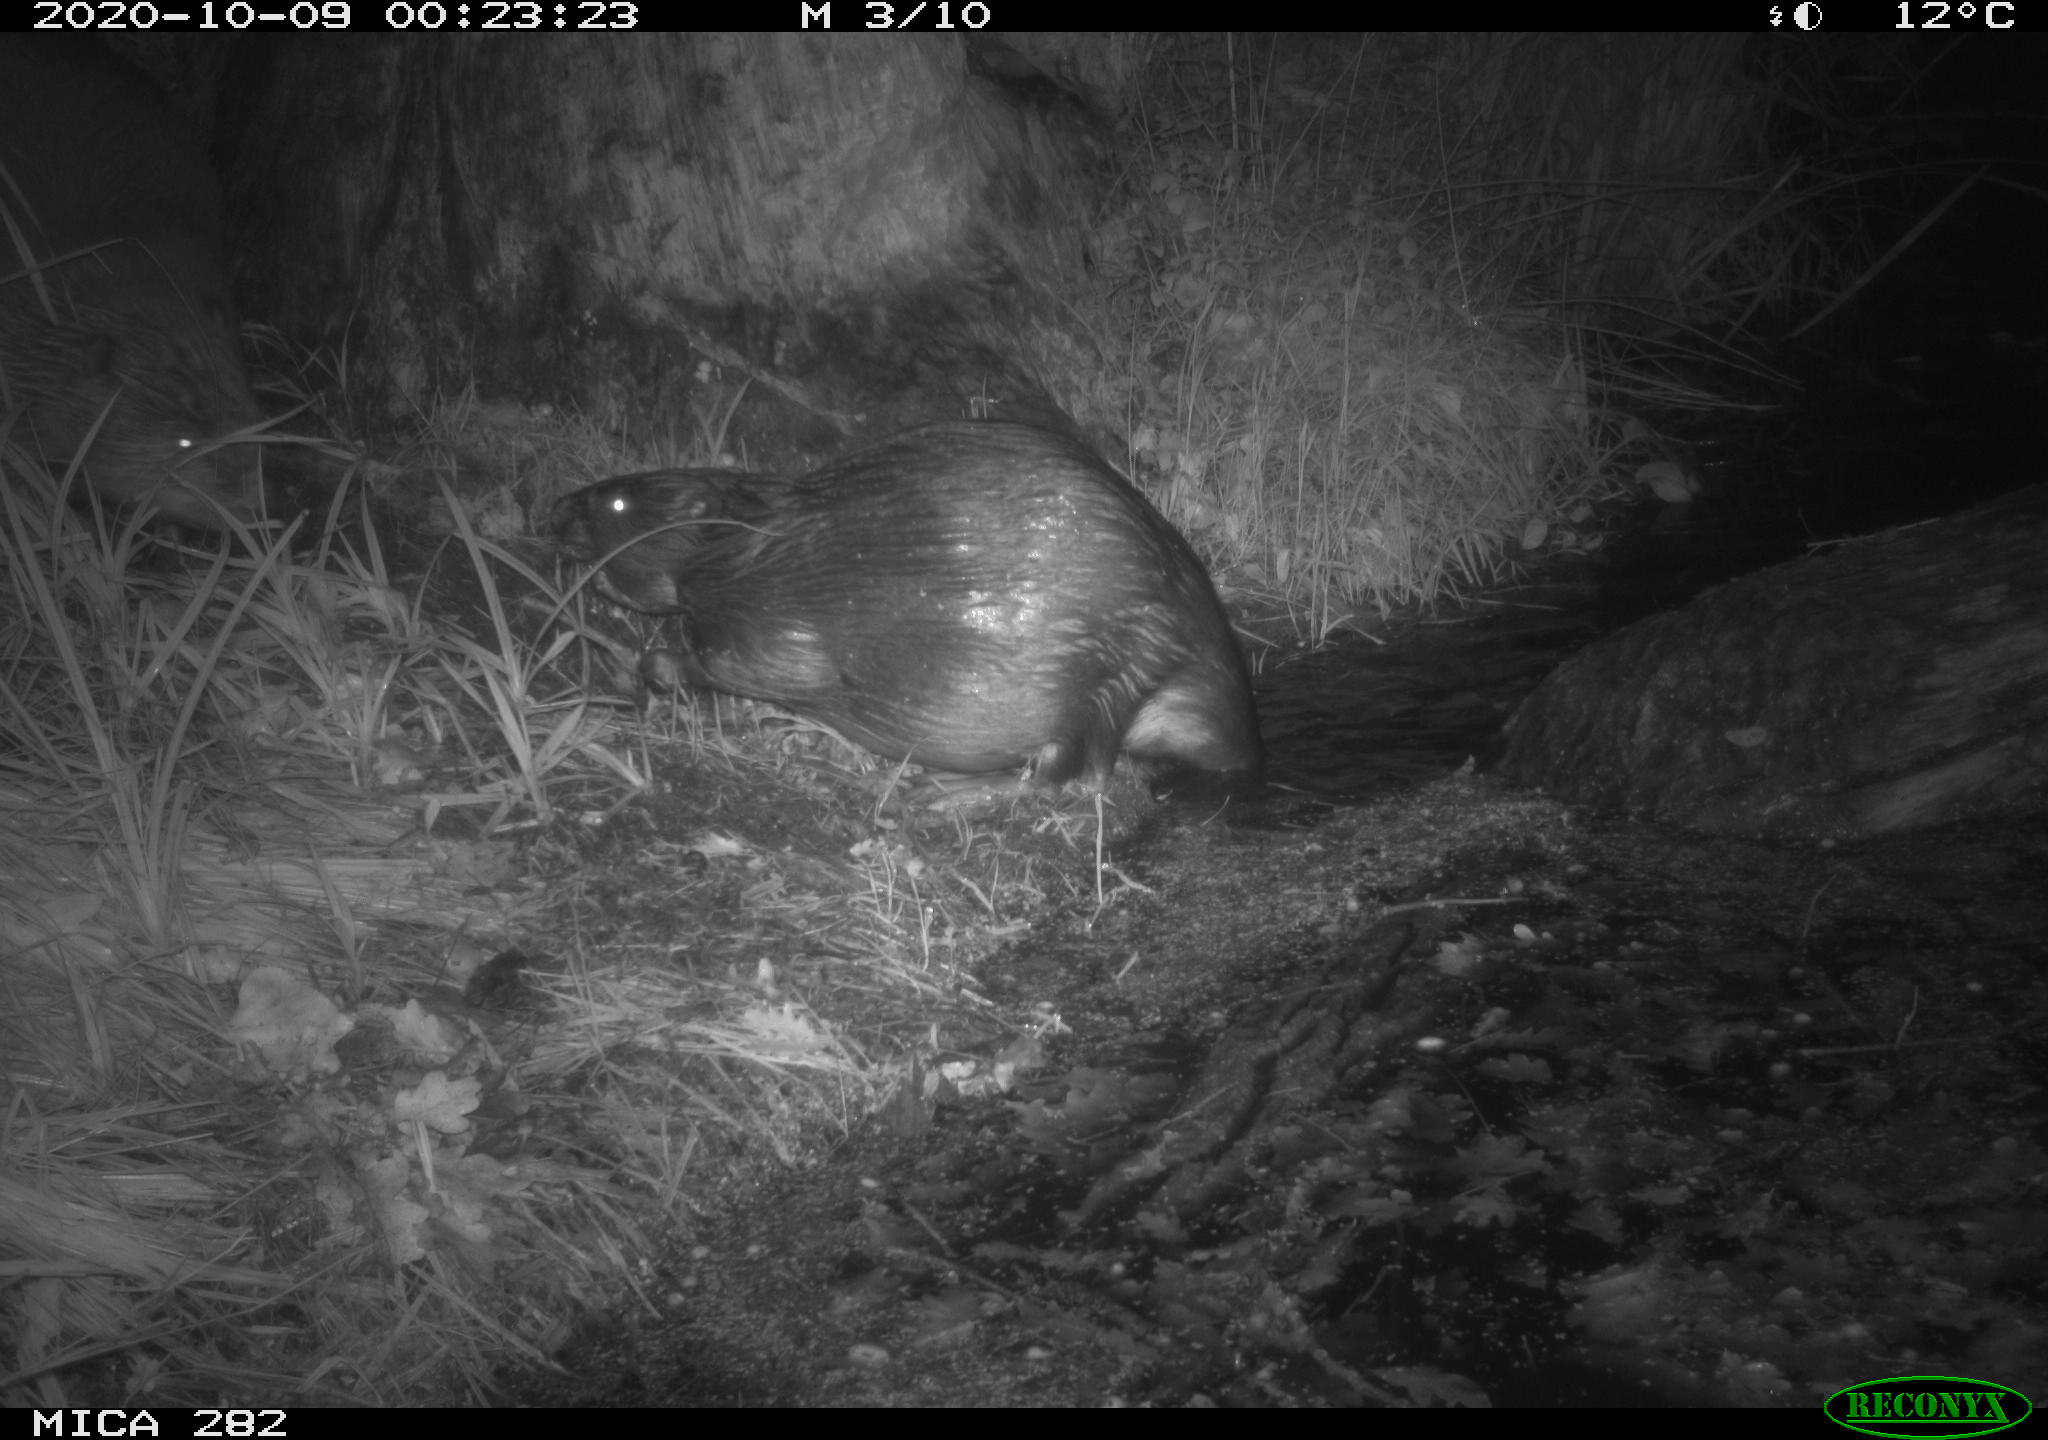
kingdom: Animalia
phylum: Chordata
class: Mammalia
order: Rodentia
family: Castoridae
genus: Castor
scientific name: Castor fiber
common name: Eurasian beaver
